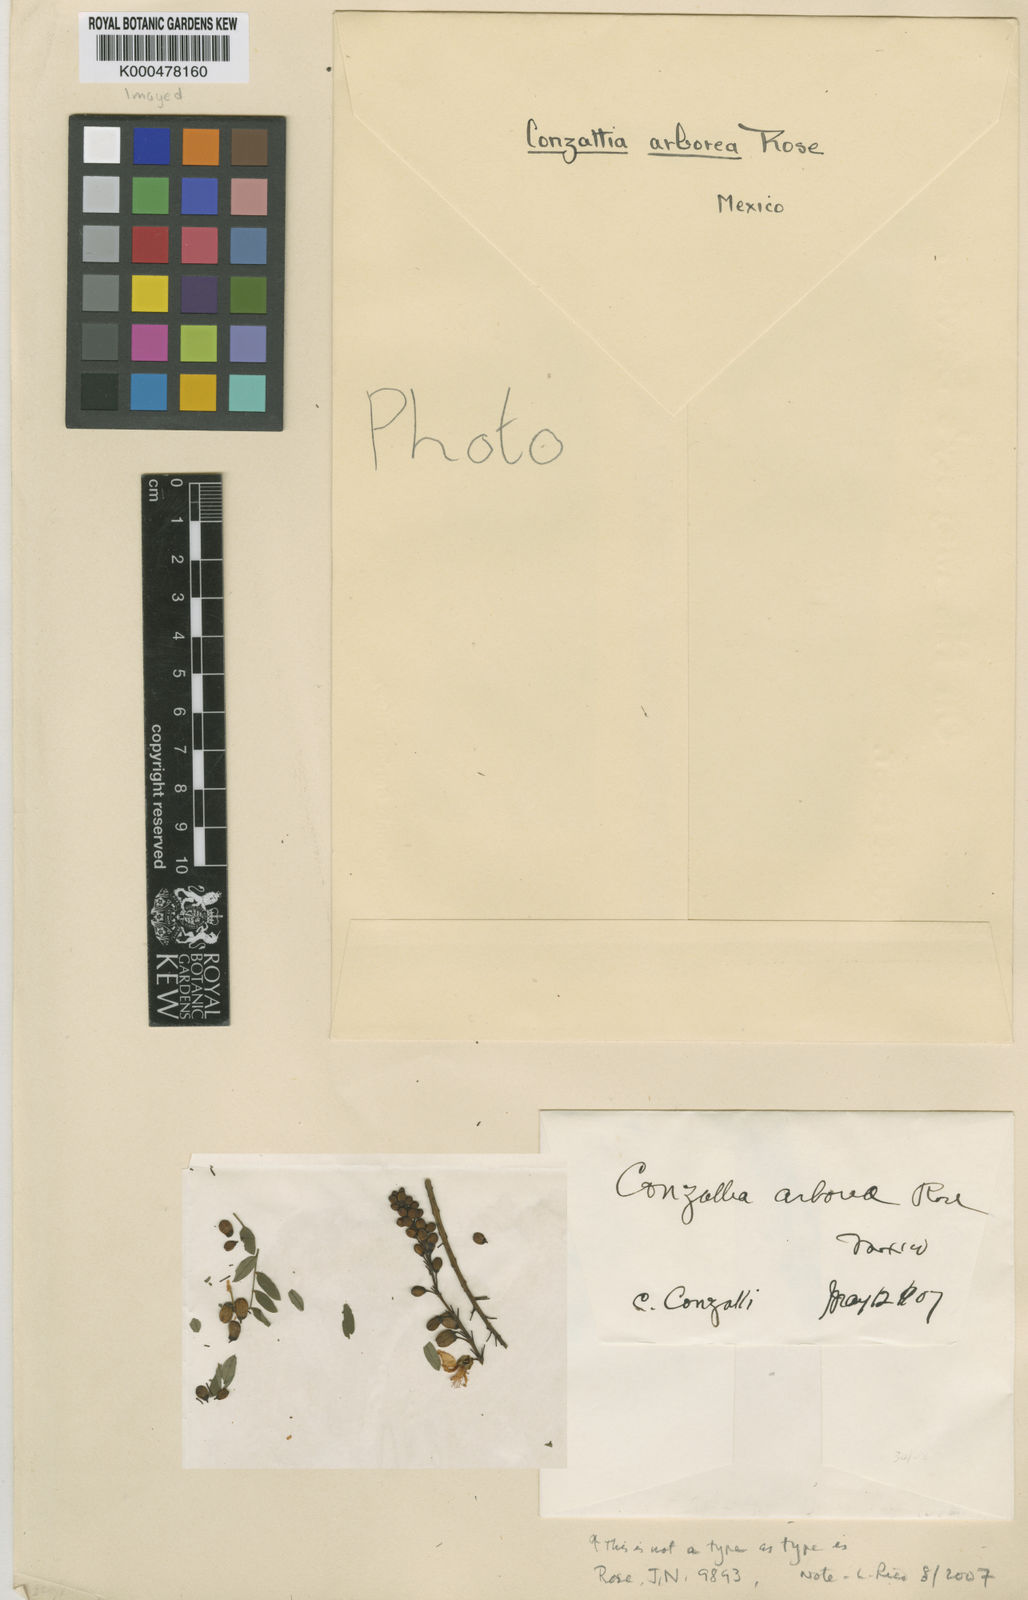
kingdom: Plantae
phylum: Tracheophyta
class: Magnoliopsida
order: Fabales
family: Fabaceae
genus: Conzattia
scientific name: Conzattia multiflora
